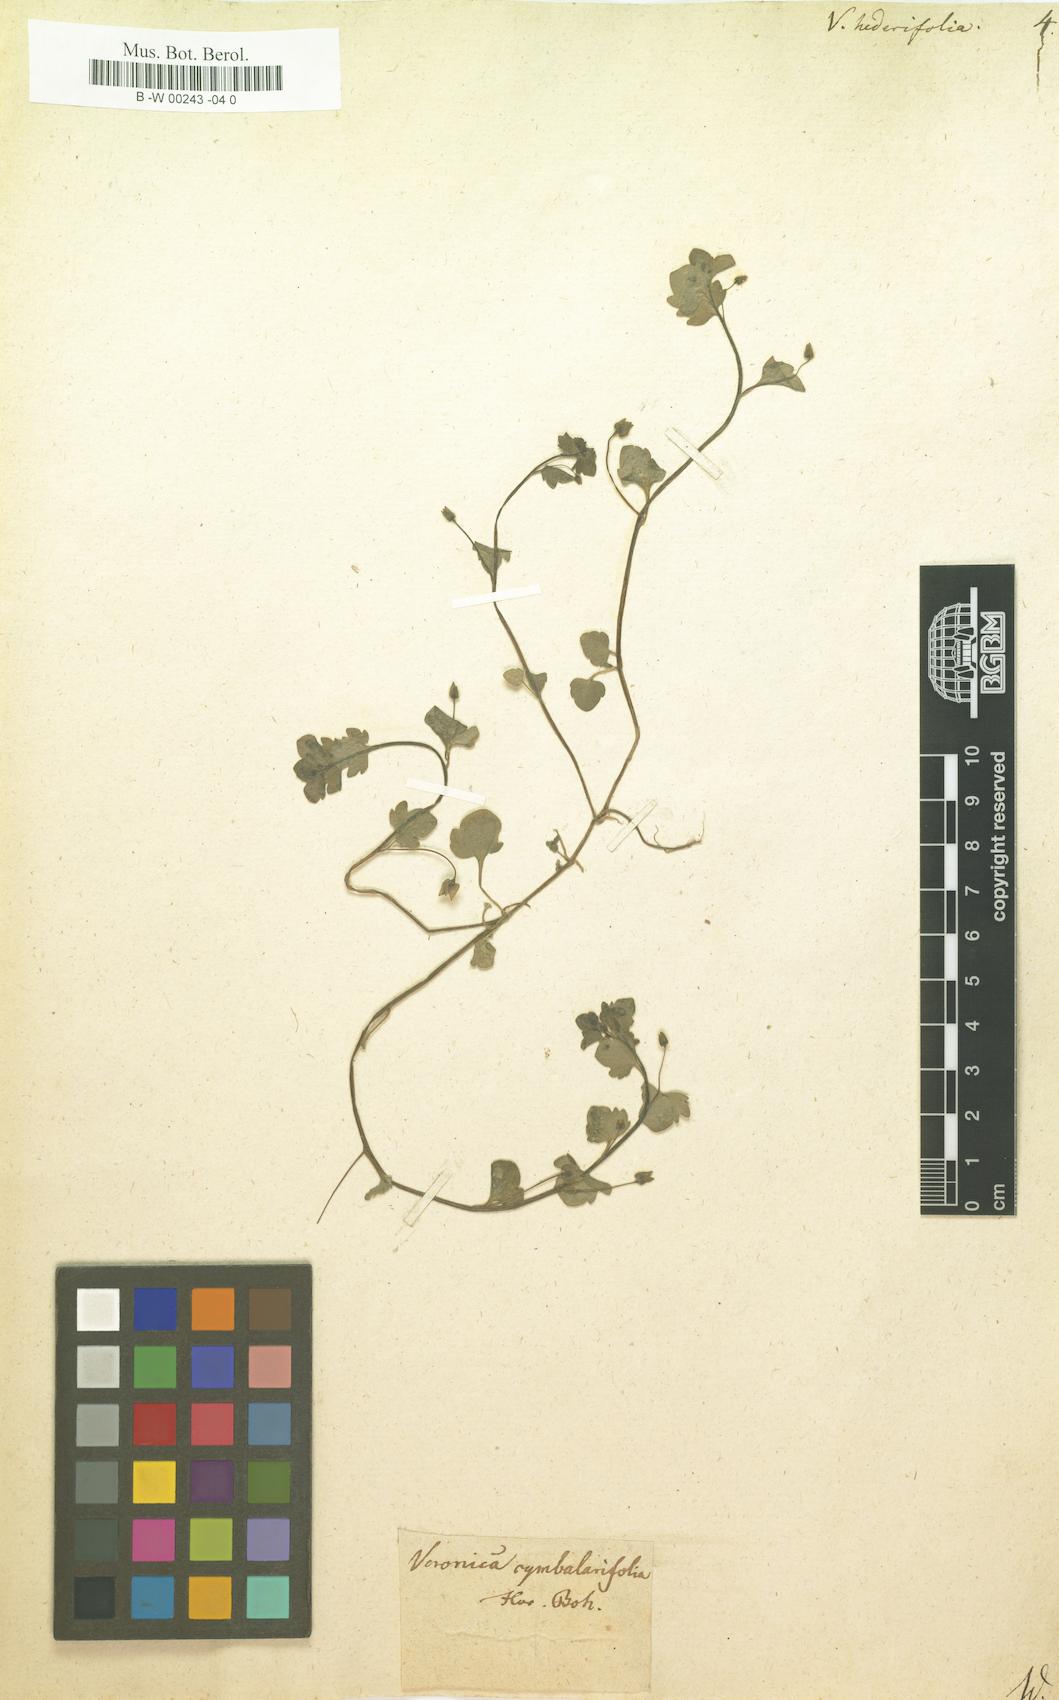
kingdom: Plantae
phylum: Tracheophyta
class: Magnoliopsida
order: Lamiales
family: Plantaginaceae
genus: Veronica
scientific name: Veronica hederifolia
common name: Ivy-leaved speedwell
